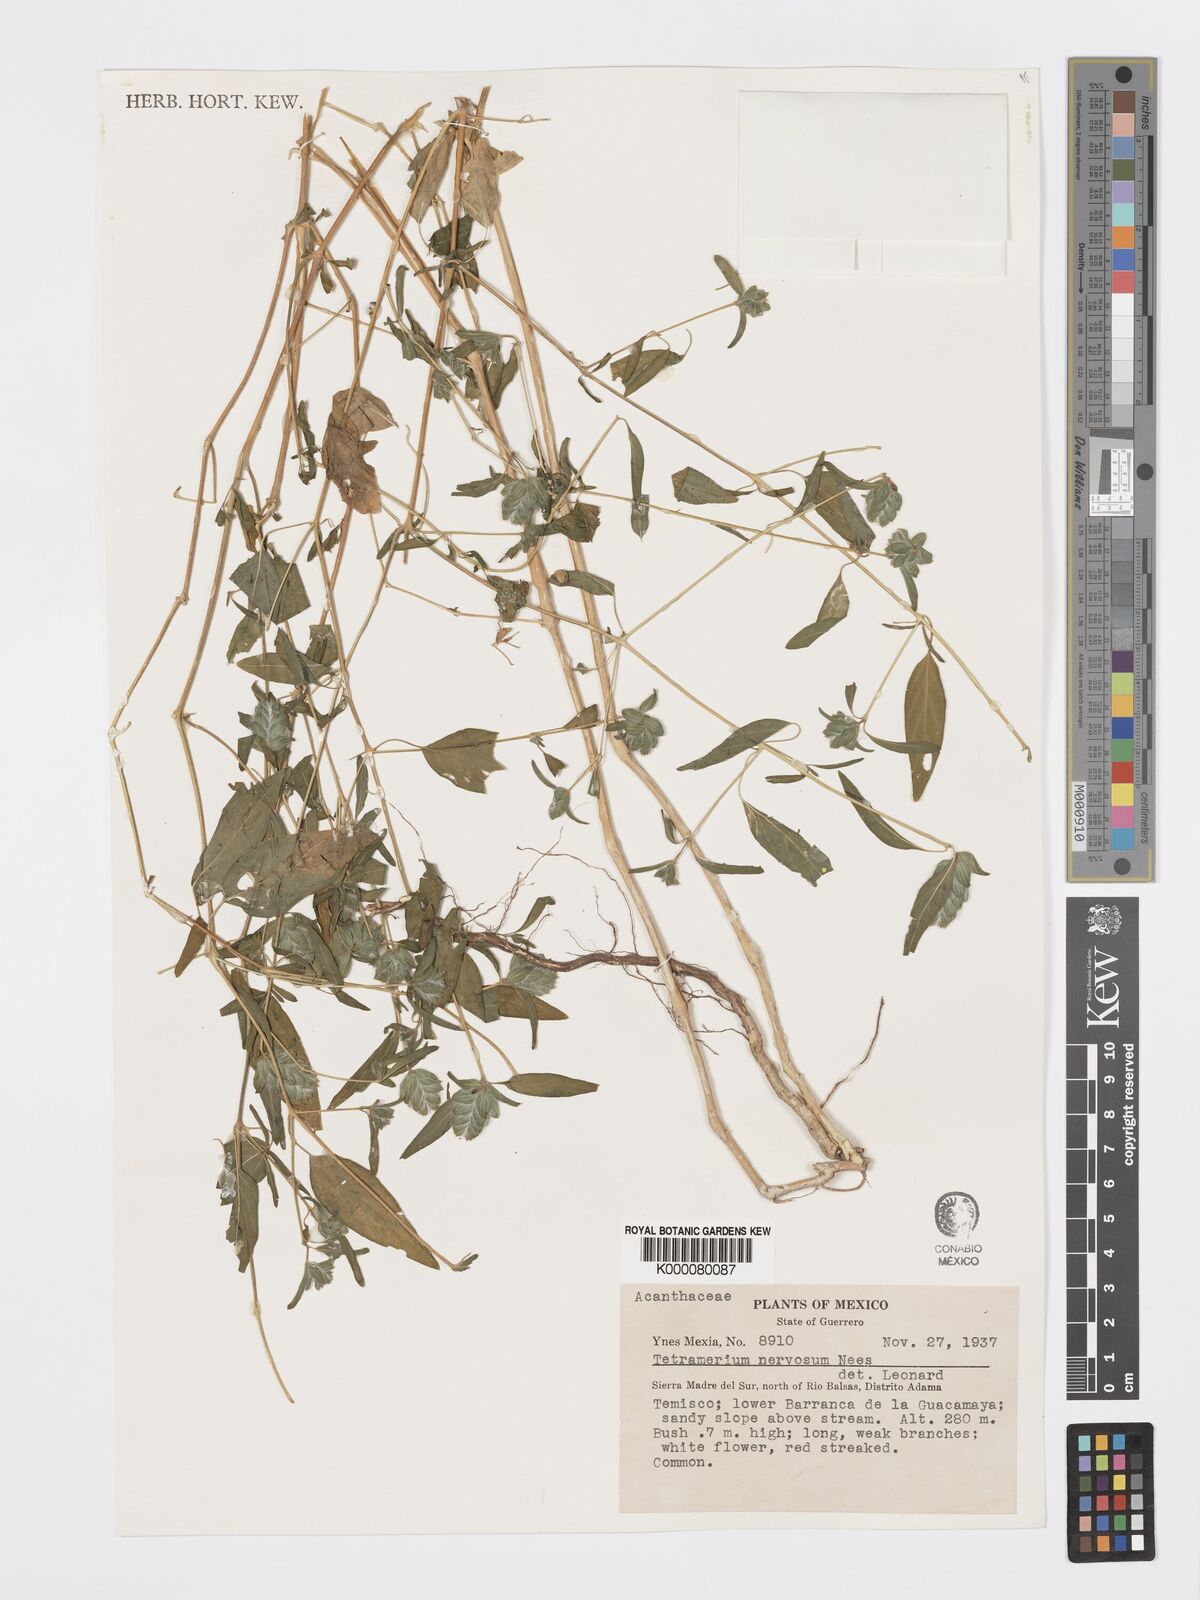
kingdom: Plantae
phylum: Tracheophyta
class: Magnoliopsida
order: Lamiales
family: Acanthaceae
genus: Tetramerium
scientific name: Tetramerium nervosum
